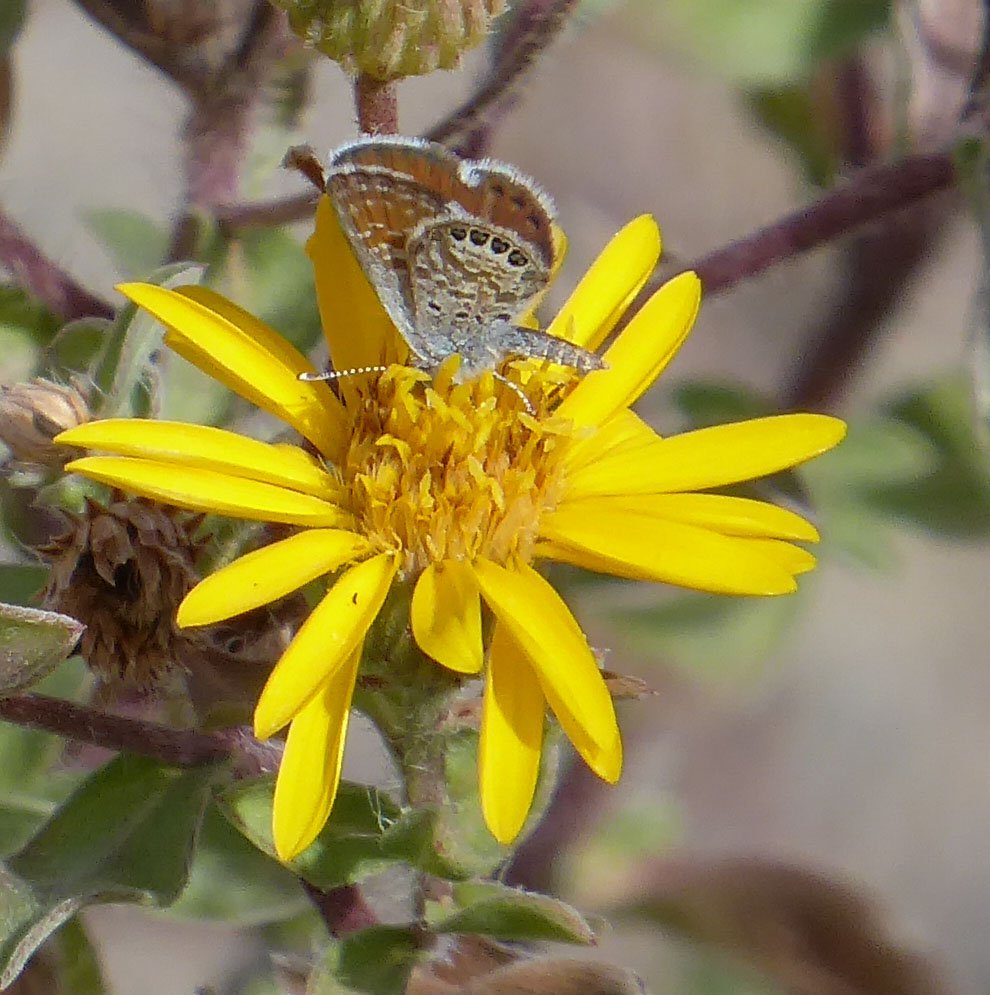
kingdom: Animalia
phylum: Arthropoda
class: Insecta
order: Lepidoptera
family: Lycaenidae
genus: Brephidium
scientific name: Brephidium exilis
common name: Western Pygmy-Blue
